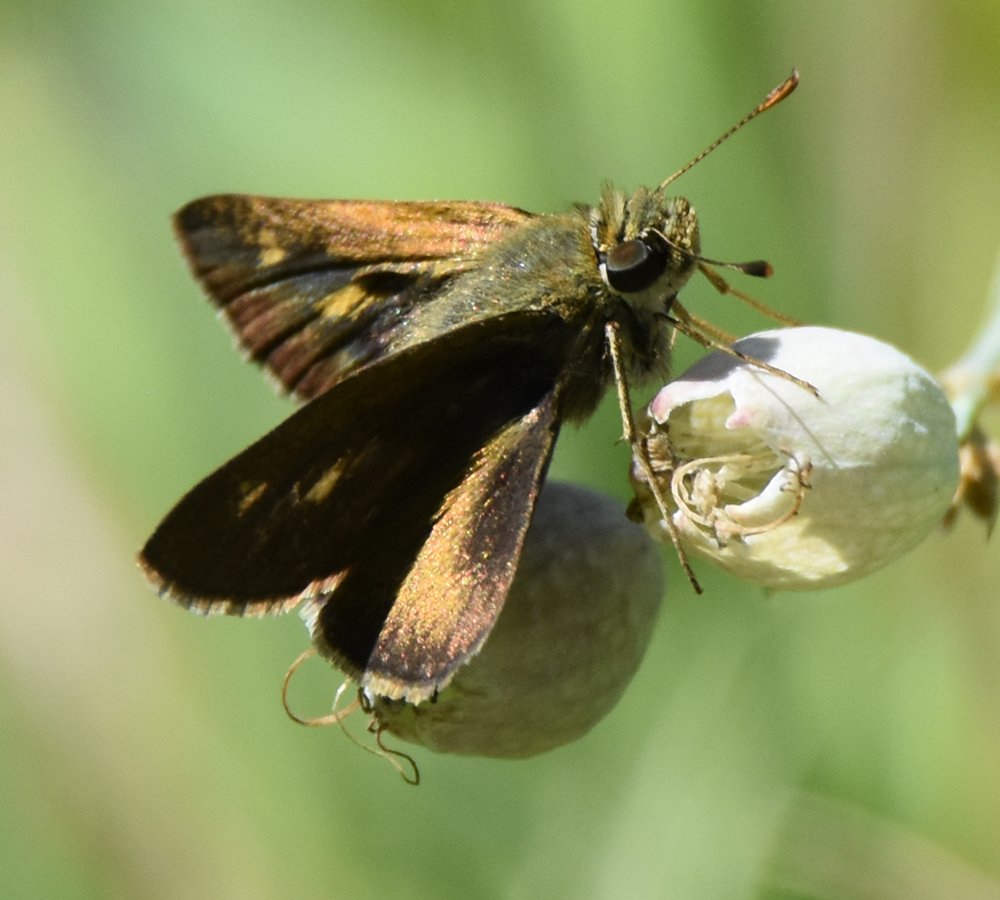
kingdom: Animalia
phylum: Arthropoda
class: Insecta
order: Lepidoptera
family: Hesperiidae
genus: Polites
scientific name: Polites themistocles
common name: Tawny-edged Skipper
